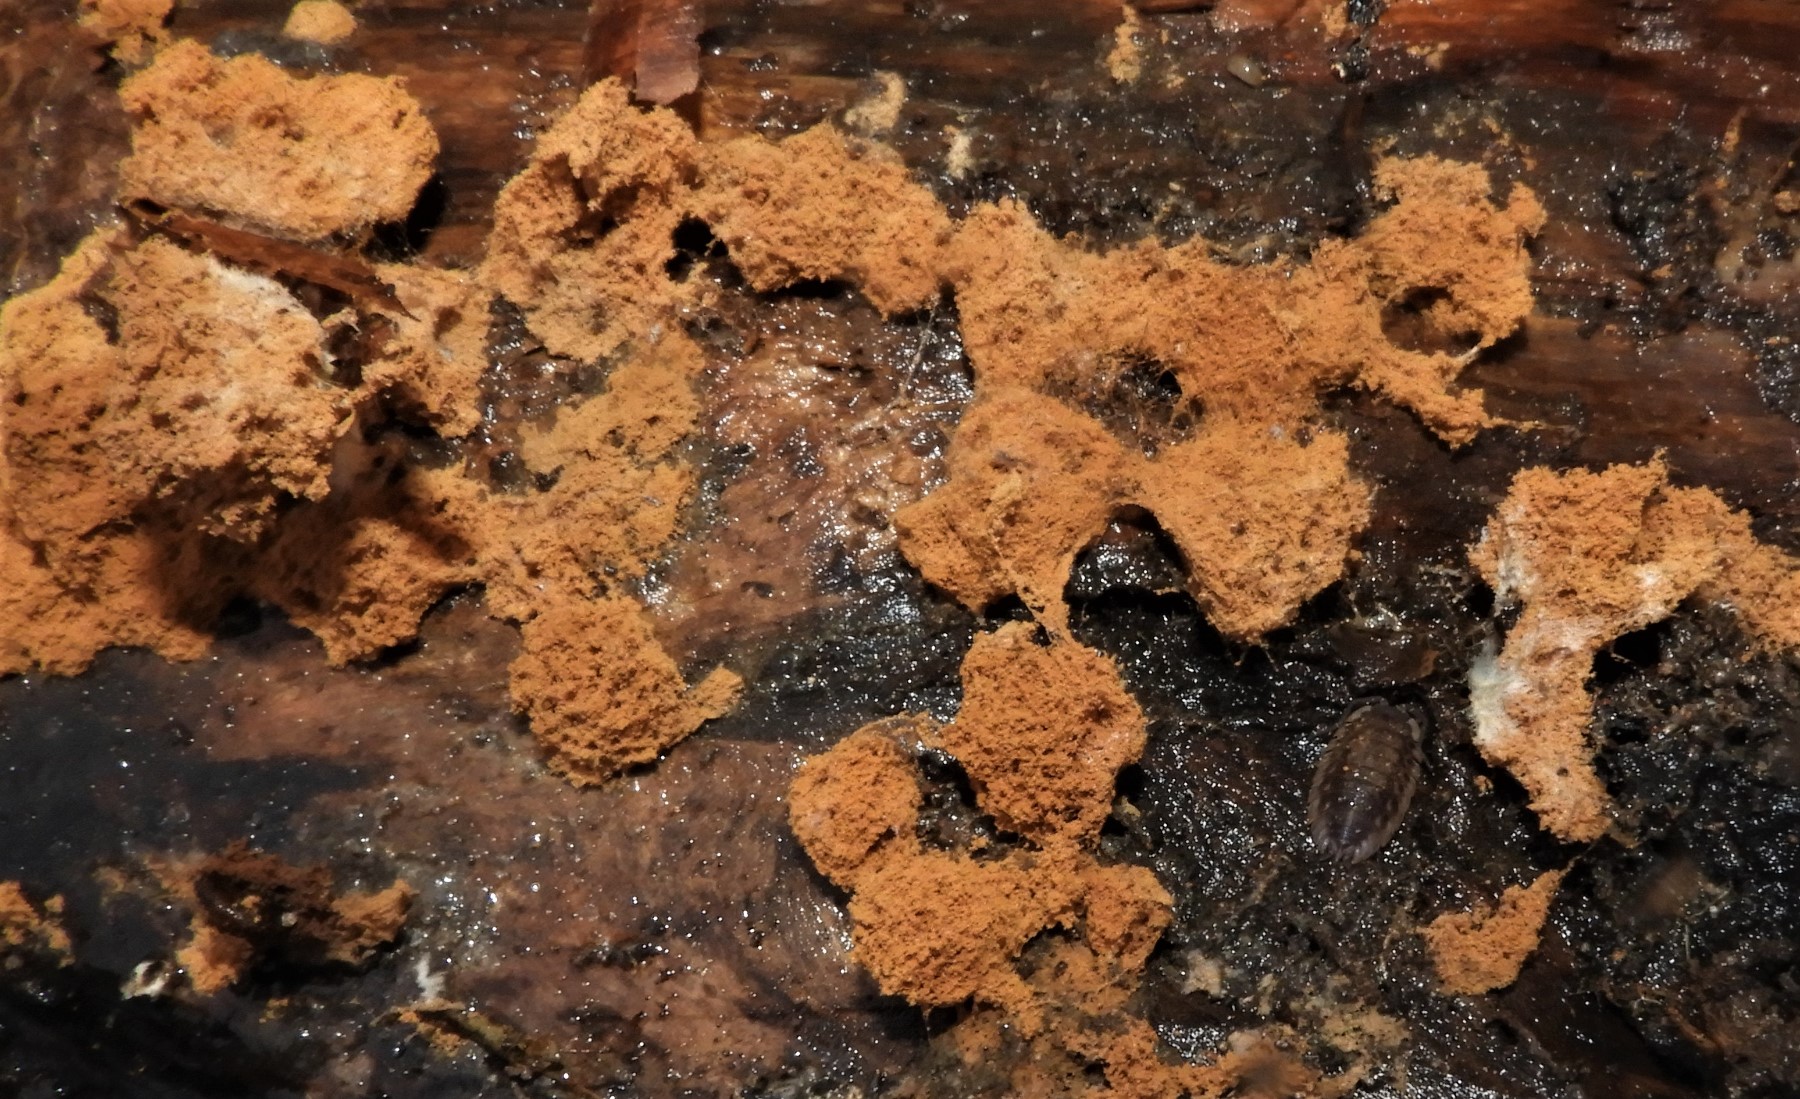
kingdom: Fungi
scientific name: Fungi
